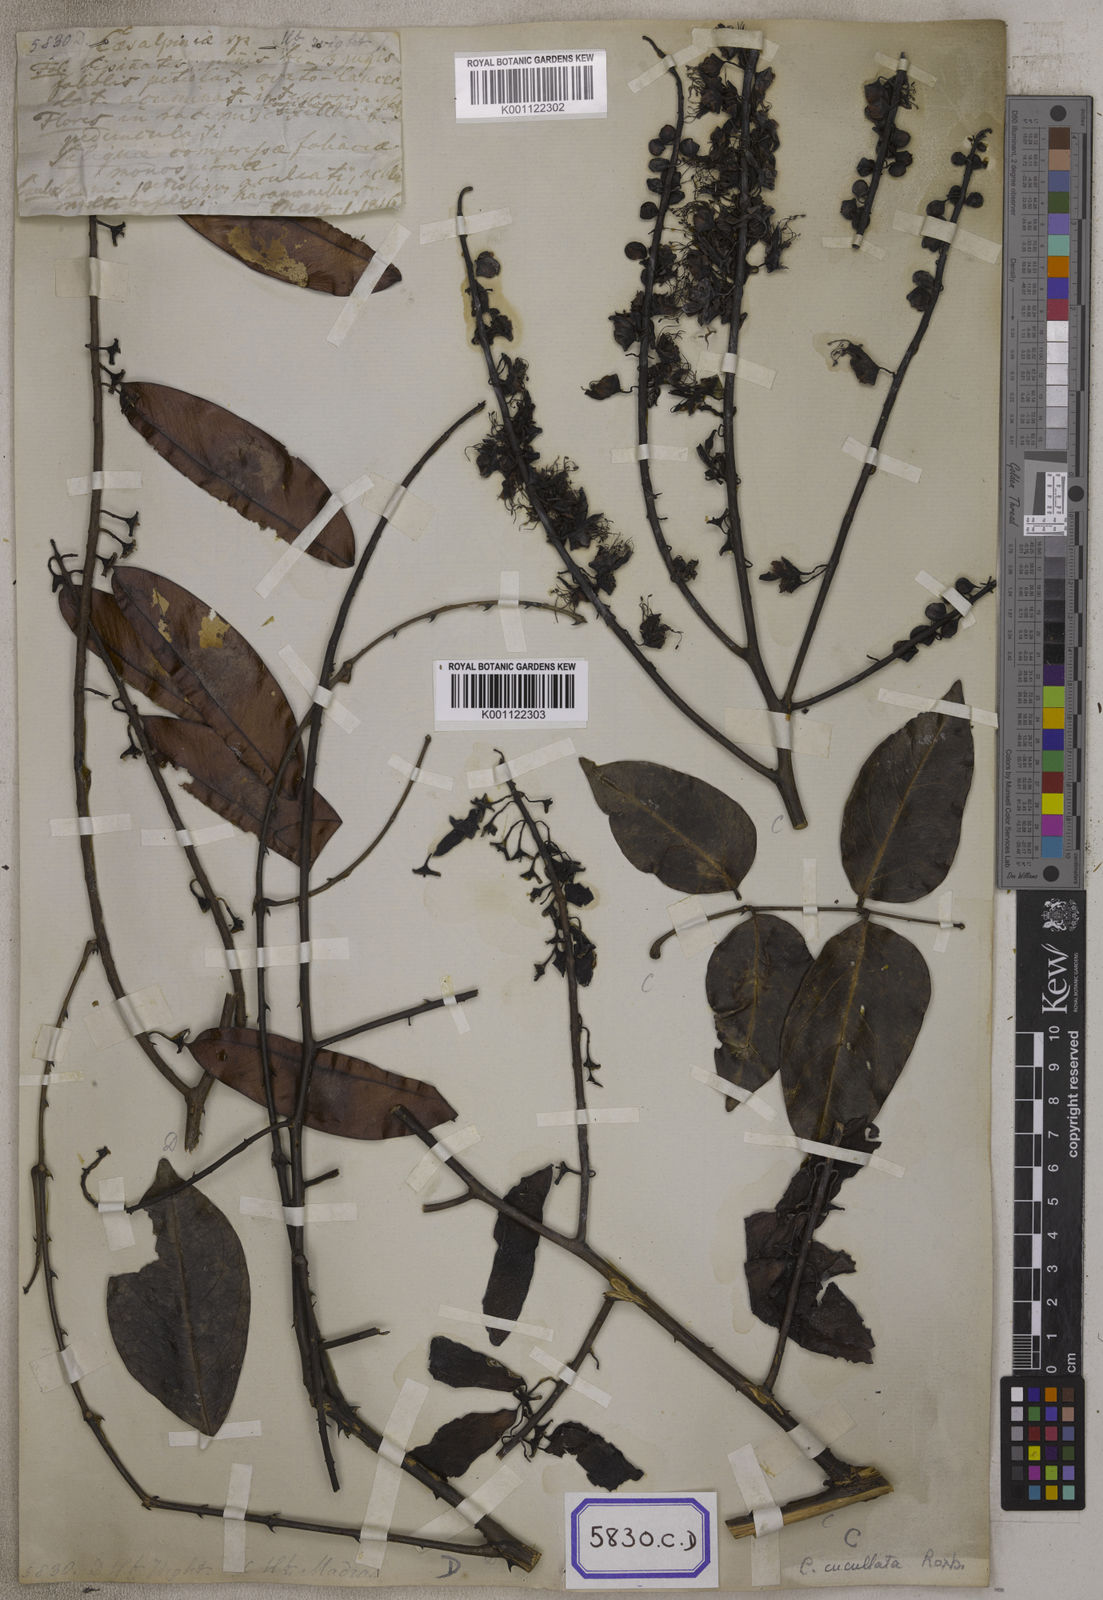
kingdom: Plantae
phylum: Tracheophyta
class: Magnoliopsida
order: Fabales
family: Fabaceae
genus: Caesalpinia
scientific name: Caesalpinia
